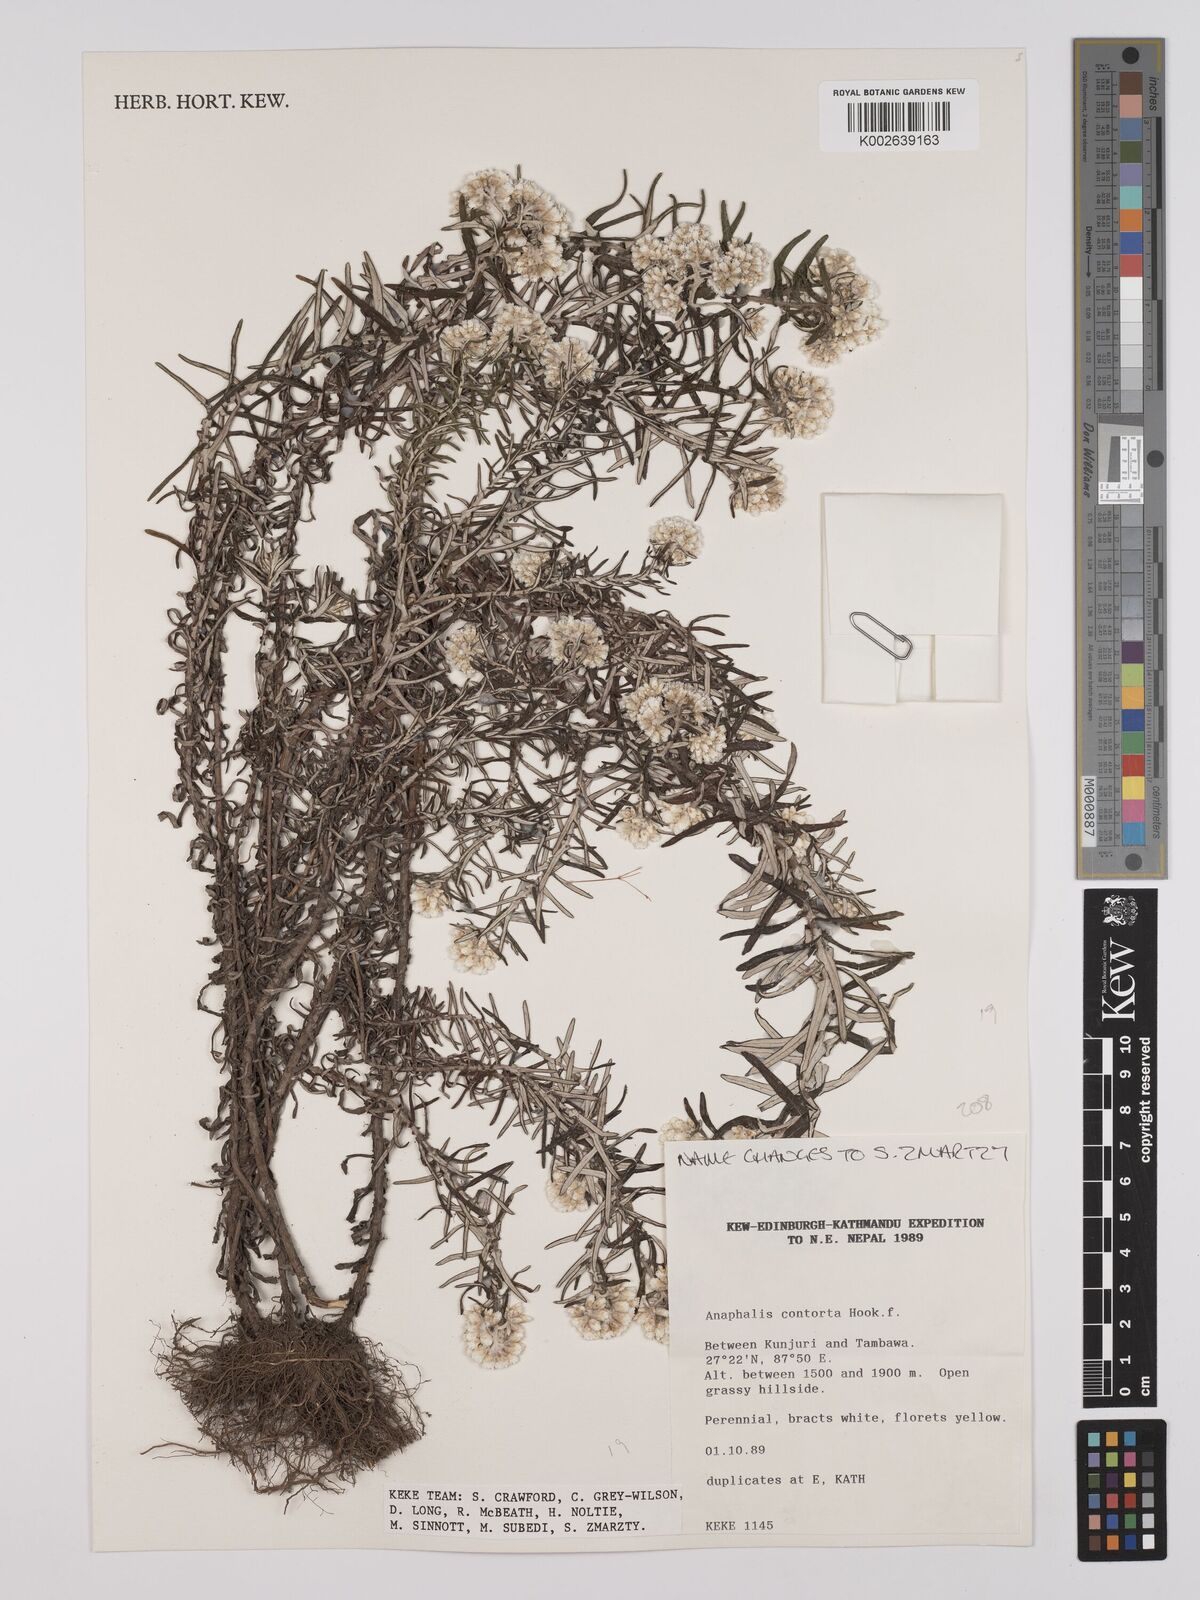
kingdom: Plantae
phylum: Tracheophyta
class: Magnoliopsida
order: Asterales
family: Asteraceae
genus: Anaphalis
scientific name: Anaphalis contorta
